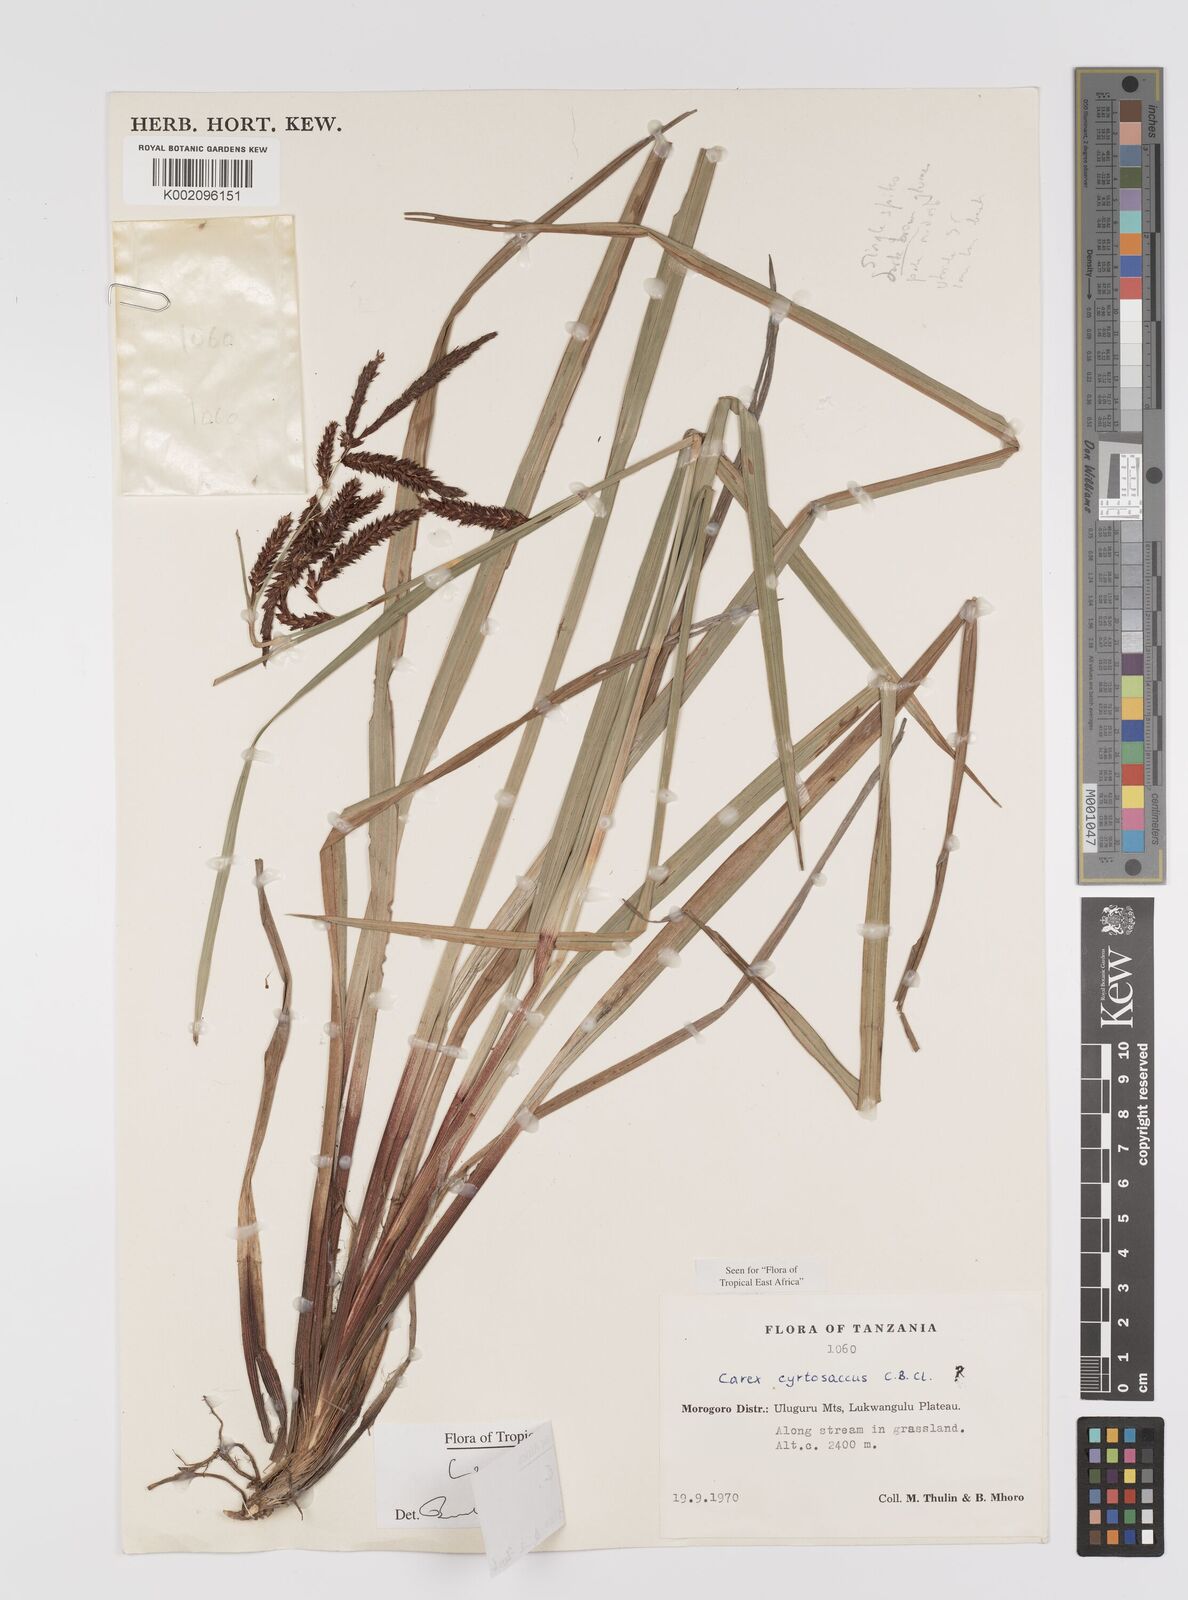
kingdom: Plantae
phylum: Tracheophyta
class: Liliopsida
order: Poales
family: Cyperaceae
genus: Carex
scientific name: Carex
